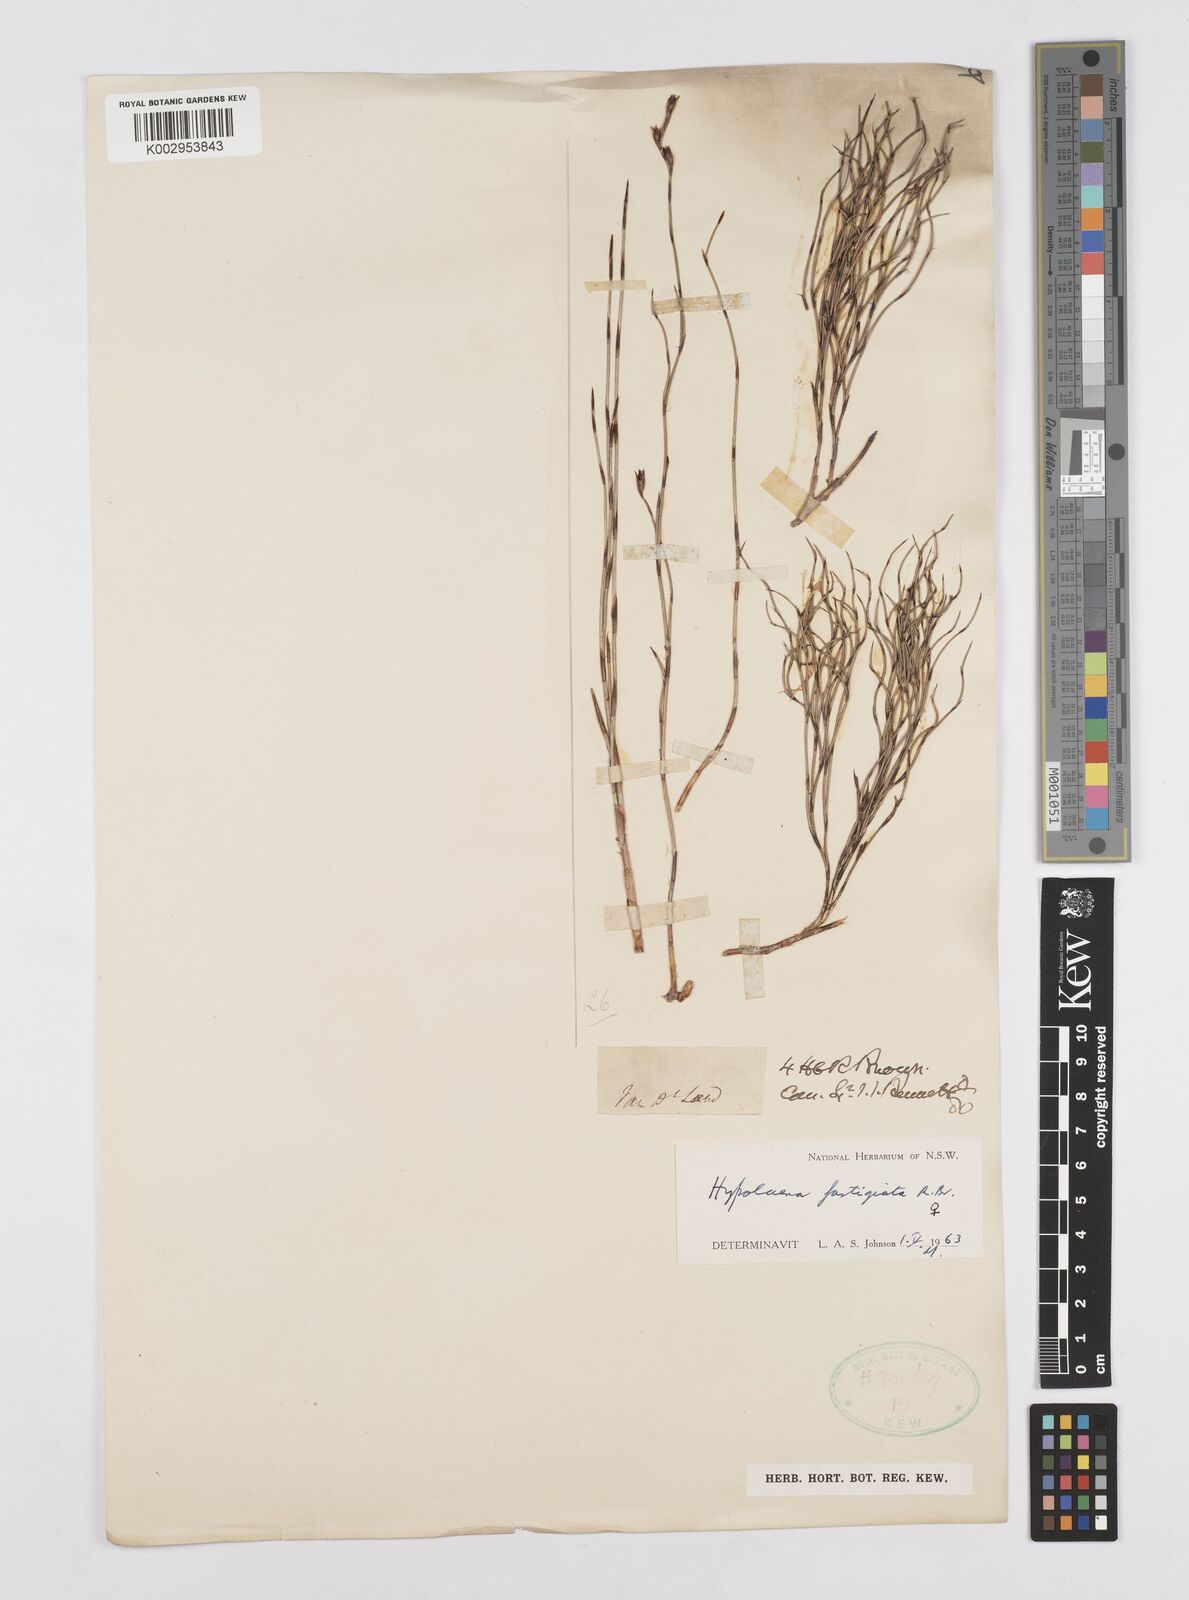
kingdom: Plantae
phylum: Tracheophyta
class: Liliopsida
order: Poales
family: Restionaceae
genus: Hypolaena
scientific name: Hypolaena fastigiata
